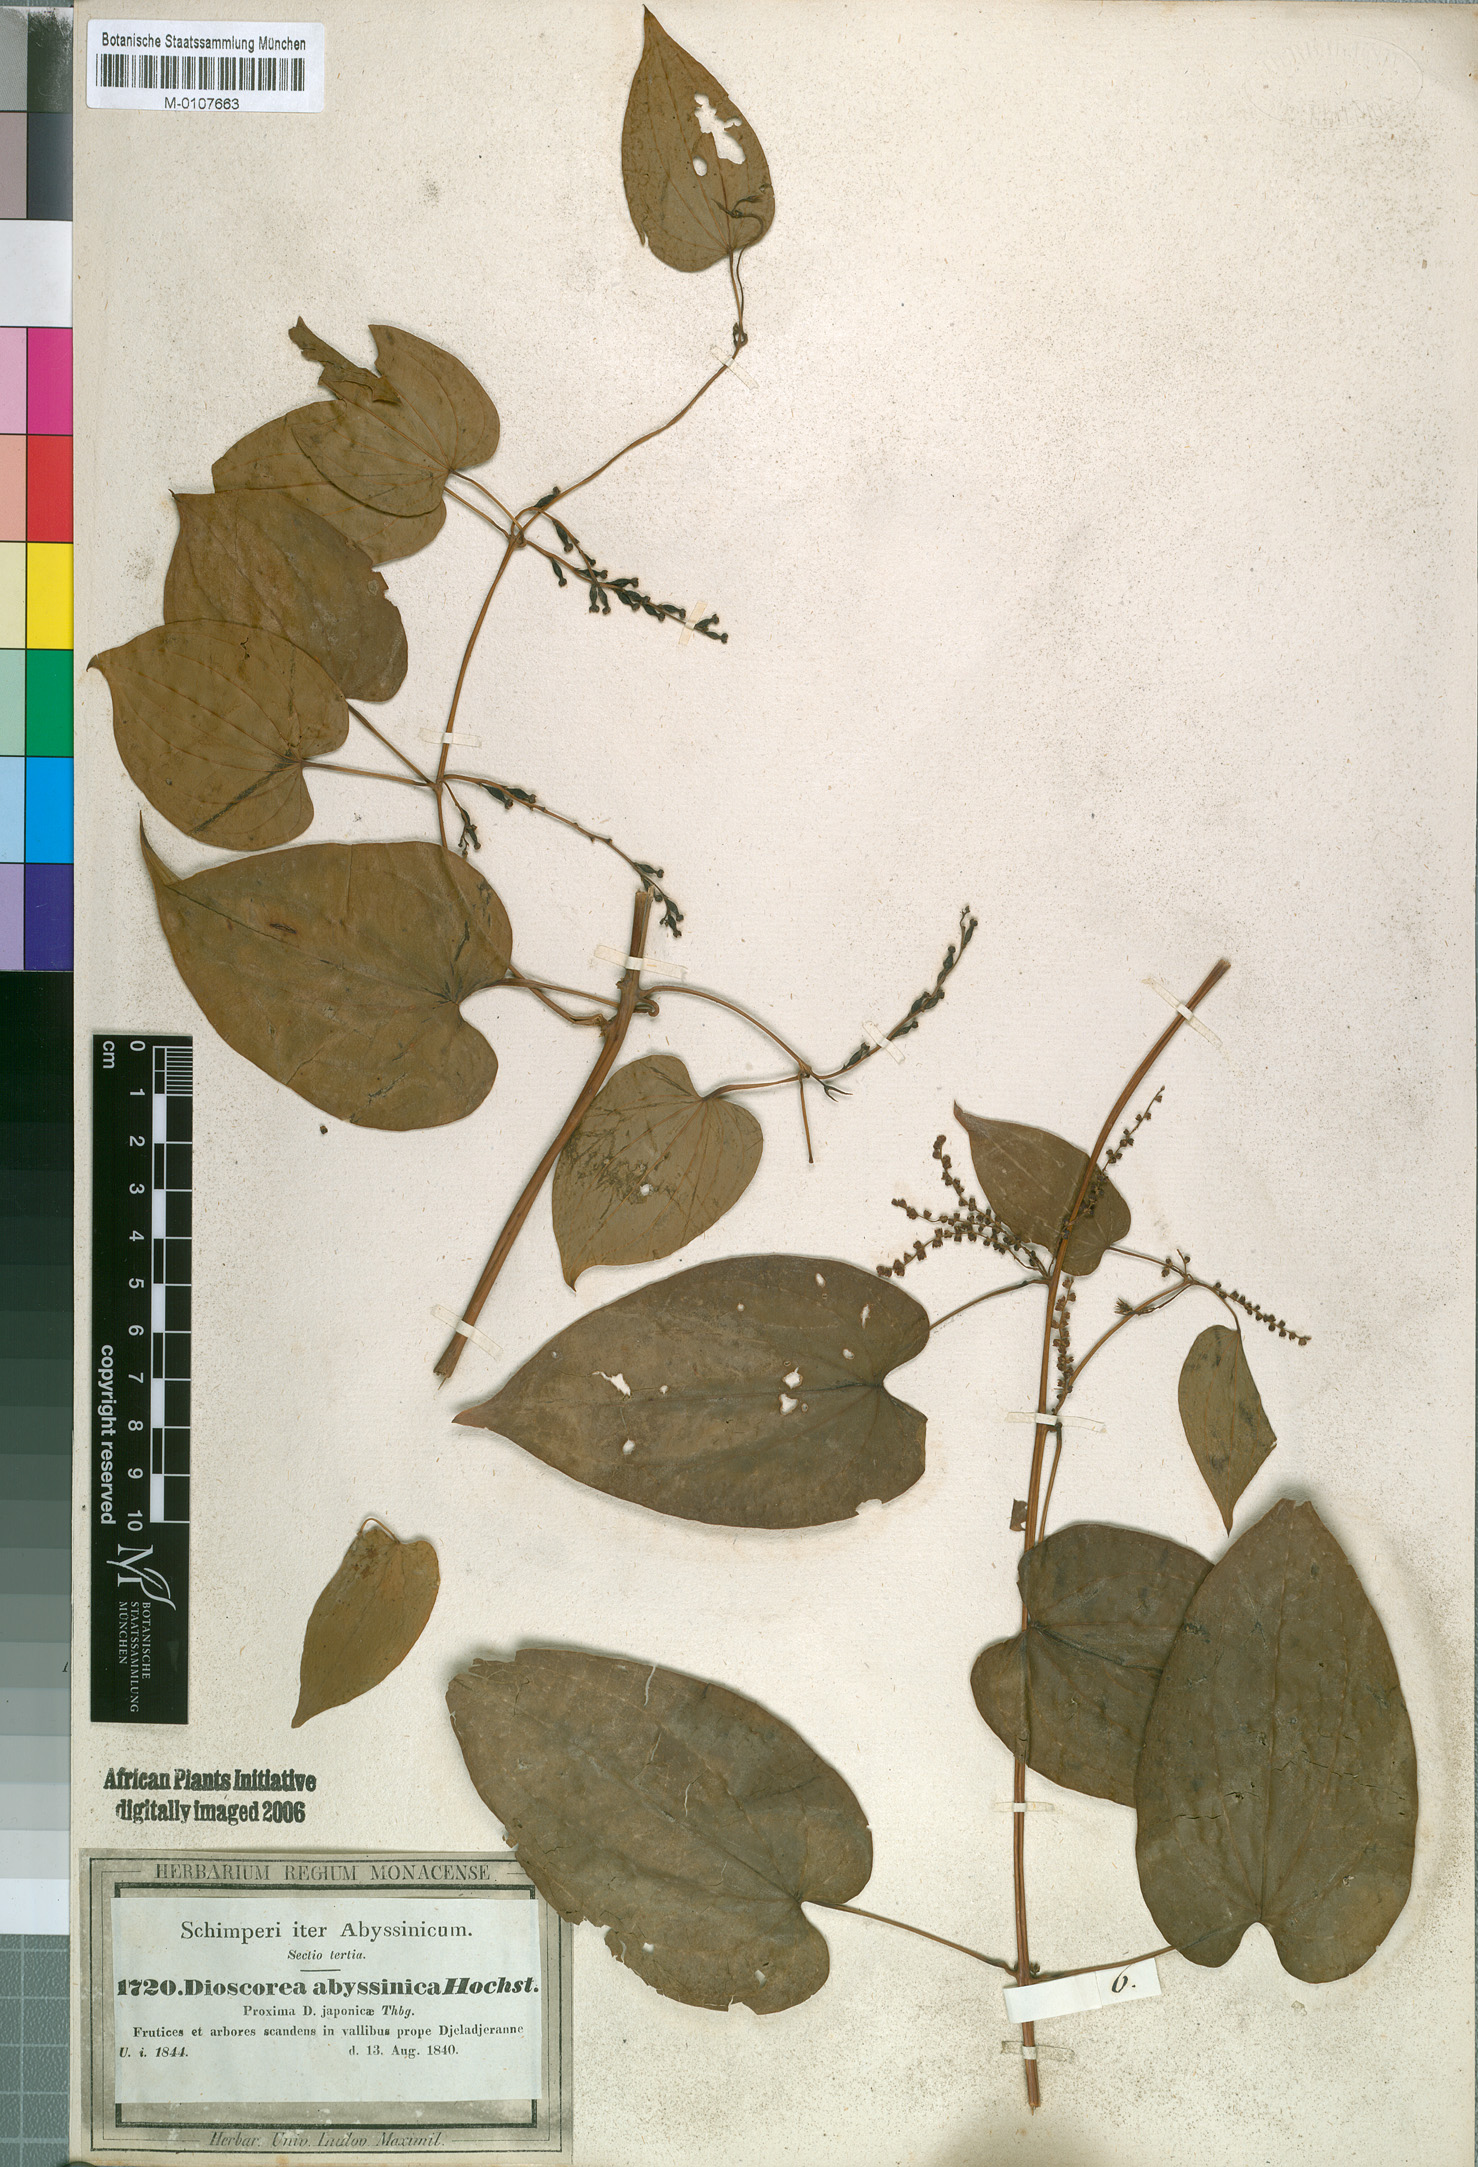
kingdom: Plantae
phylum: Tracheophyta
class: Liliopsida
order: Dioscoreales
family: Dioscoreaceae
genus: Dioscorea
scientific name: Dioscorea abyssinica
